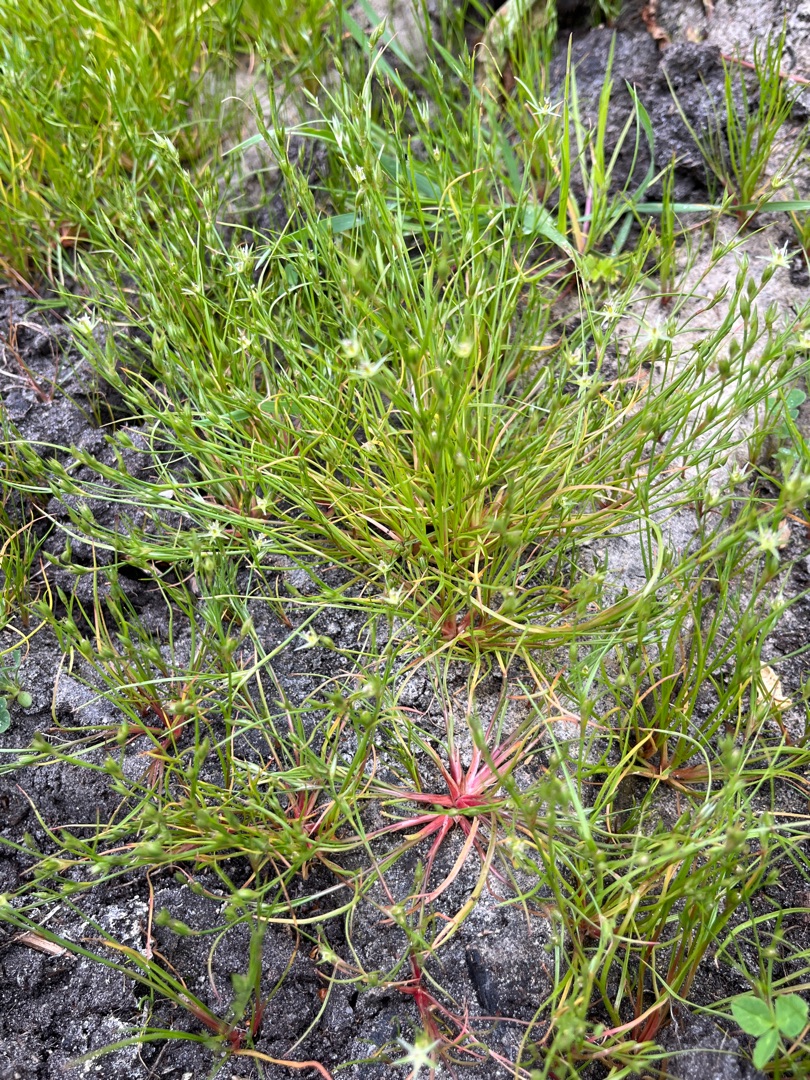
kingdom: Plantae
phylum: Tracheophyta
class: Liliopsida
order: Poales
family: Juncaceae
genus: Juncus
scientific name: Juncus bufonius
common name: Tudse-siv
